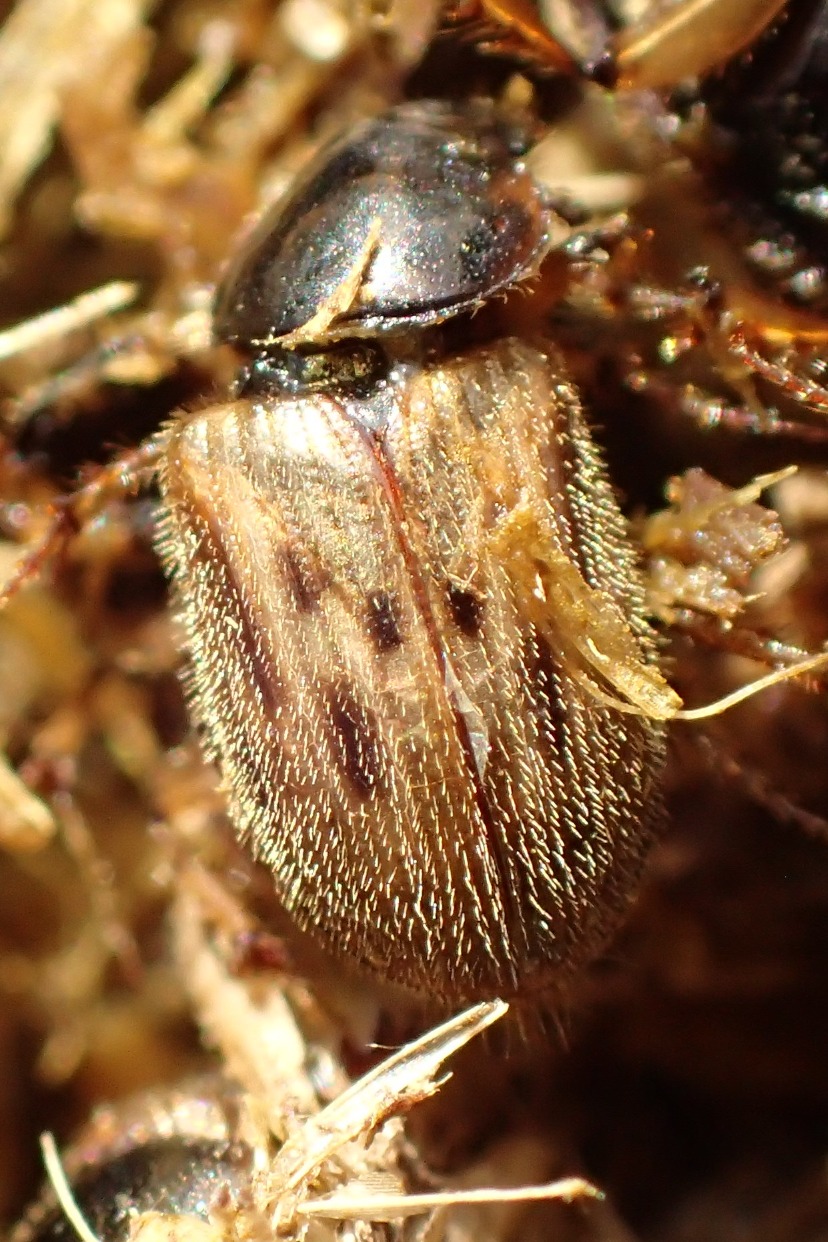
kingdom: Animalia
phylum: Arthropoda
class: Insecta
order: Coleoptera
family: Scarabaeidae
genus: Nimbus
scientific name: Nimbus contaminatus
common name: Sandhåret møgbille
